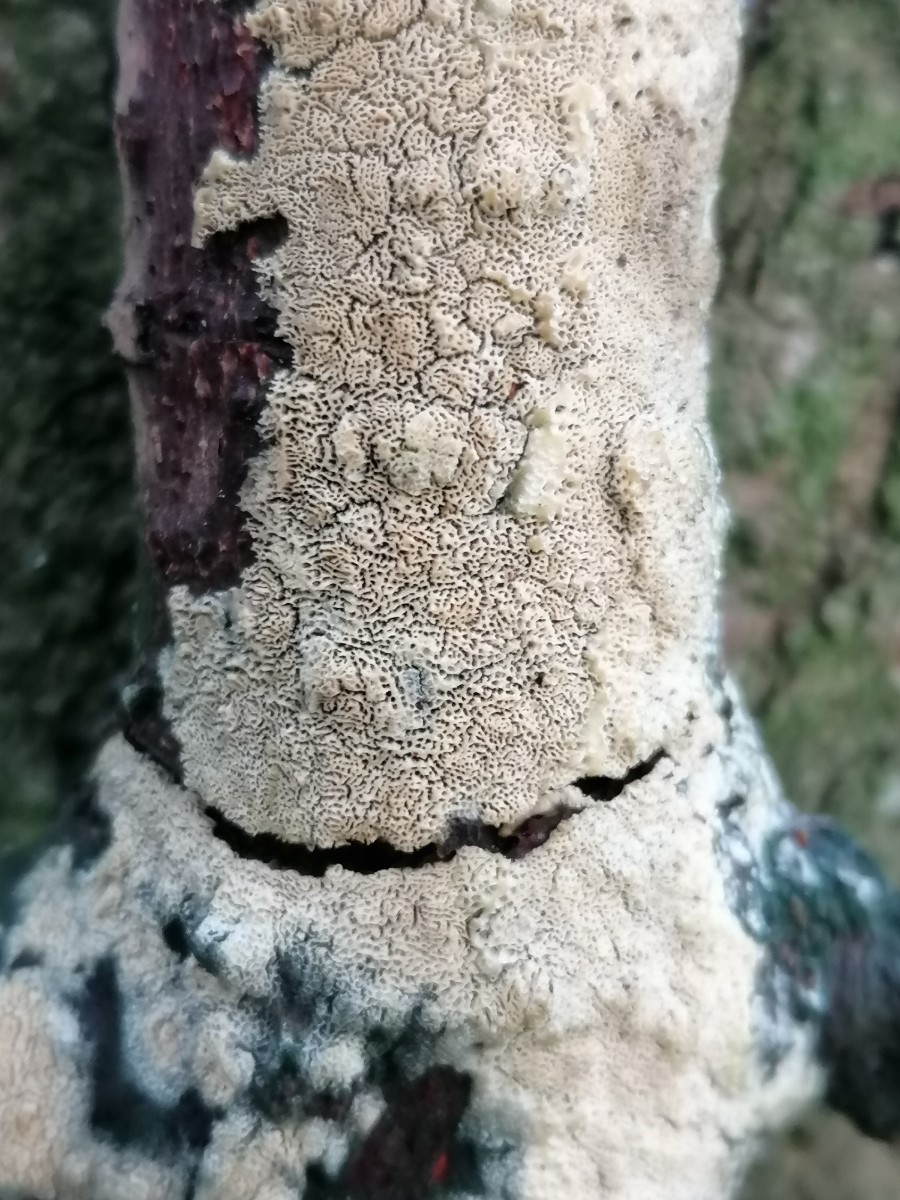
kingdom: Fungi
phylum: Basidiomycota
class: Agaricomycetes
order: Hymenochaetales
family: Schizoporaceae
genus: Xylodon
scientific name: Xylodon subtropicus
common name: labyrint-tandsvamp
